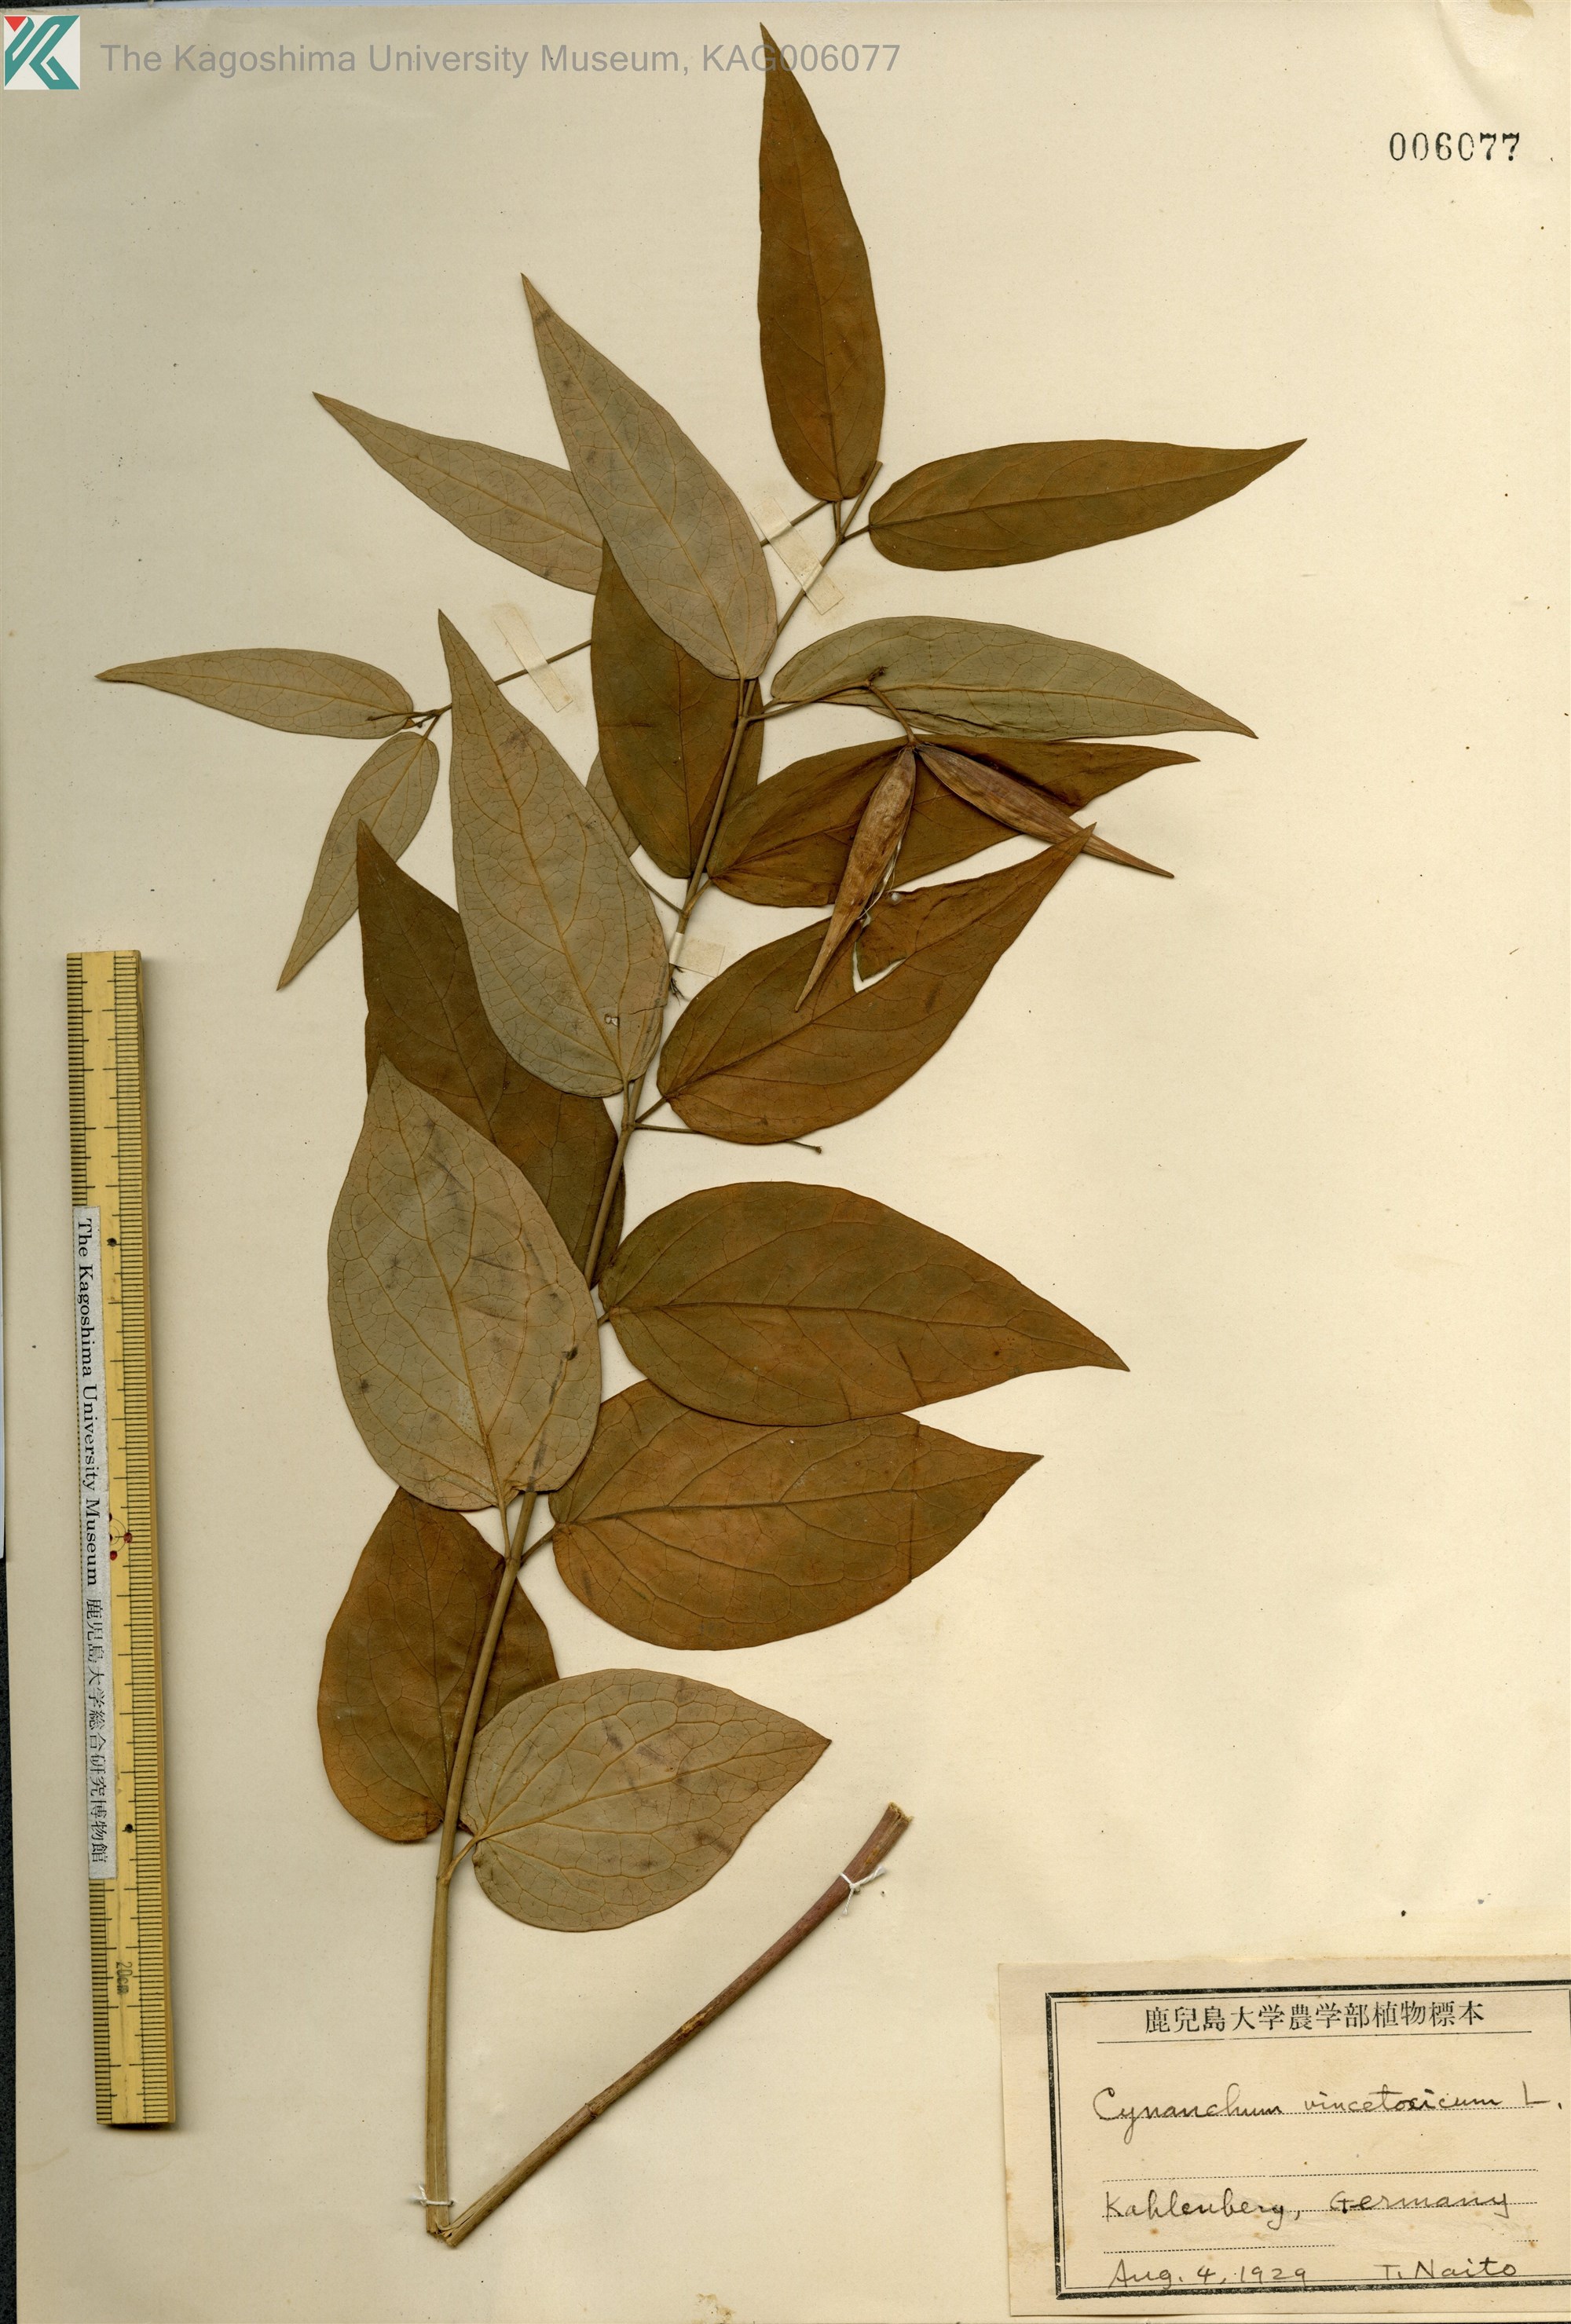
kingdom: Plantae
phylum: Tracheophyta
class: Magnoliopsida
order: Gentianales
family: Apocynaceae
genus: Vincetoxicum
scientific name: Vincetoxicum hirundinaria
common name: White swallowwort
